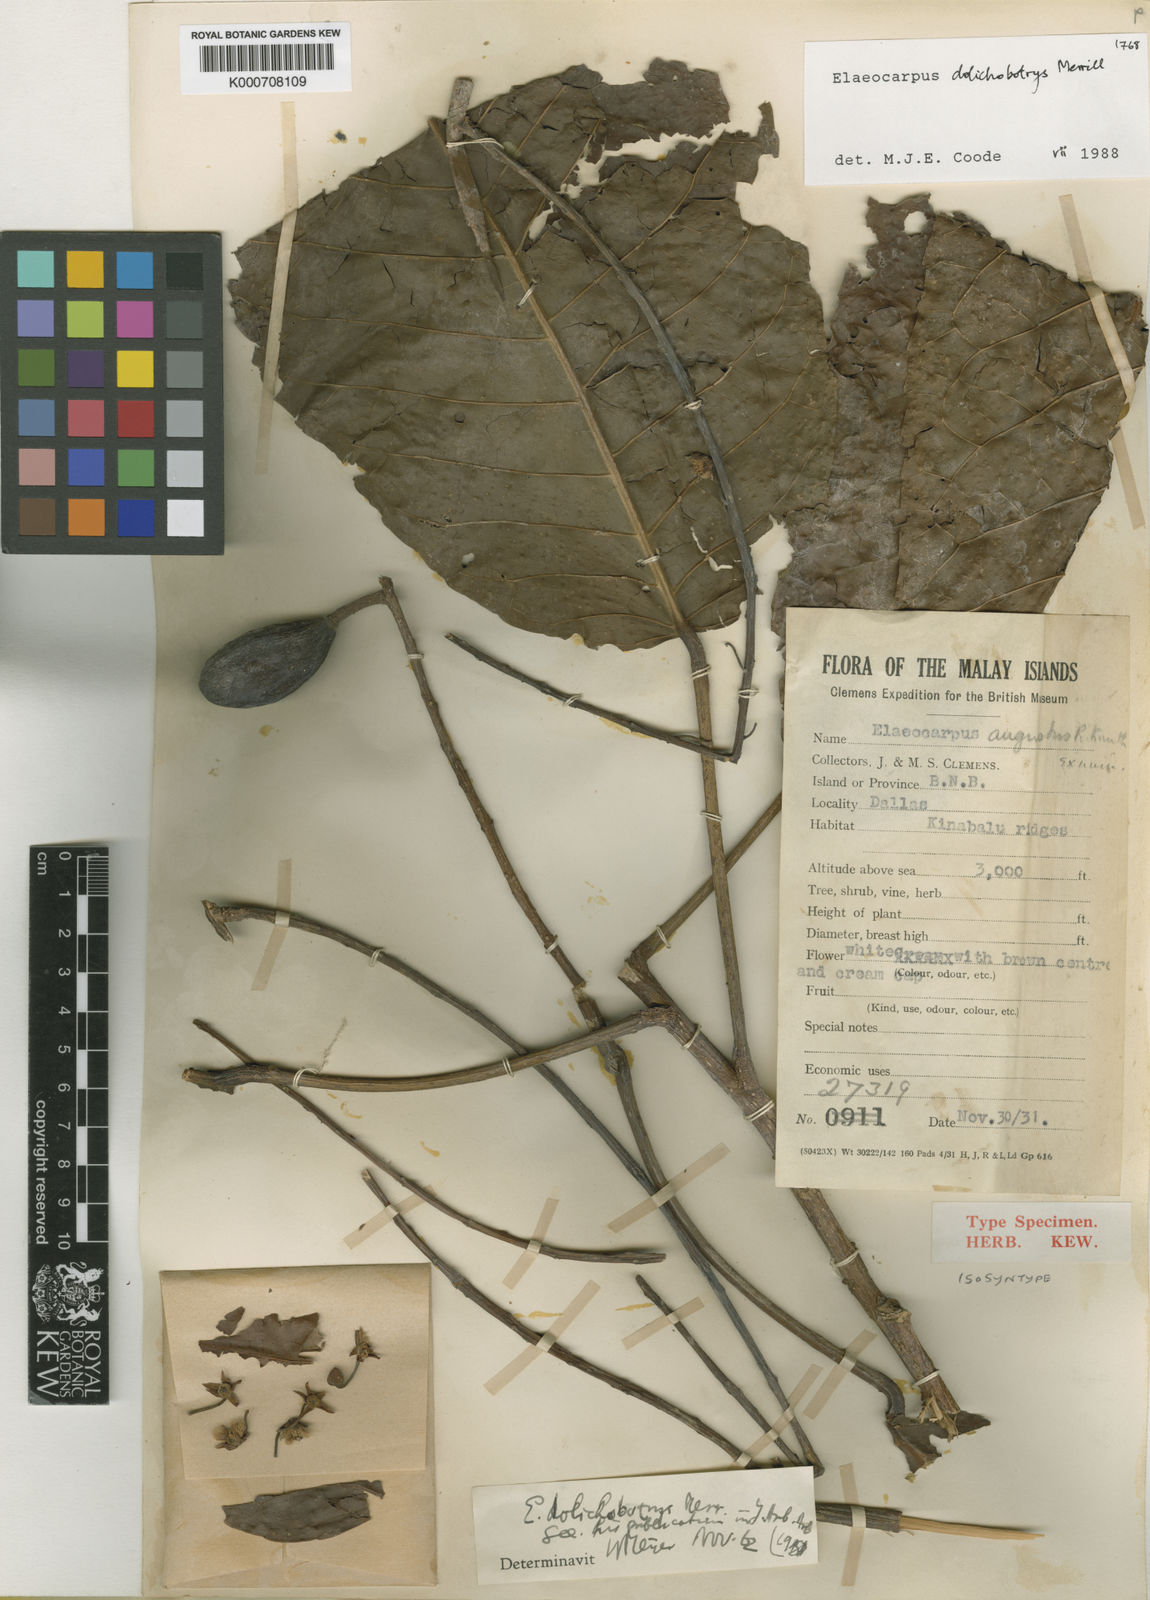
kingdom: Plantae
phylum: Tracheophyta
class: Magnoliopsida
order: Oxalidales
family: Elaeocarpaceae
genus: Elaeocarpus
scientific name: Elaeocarpus dolichobotrys
